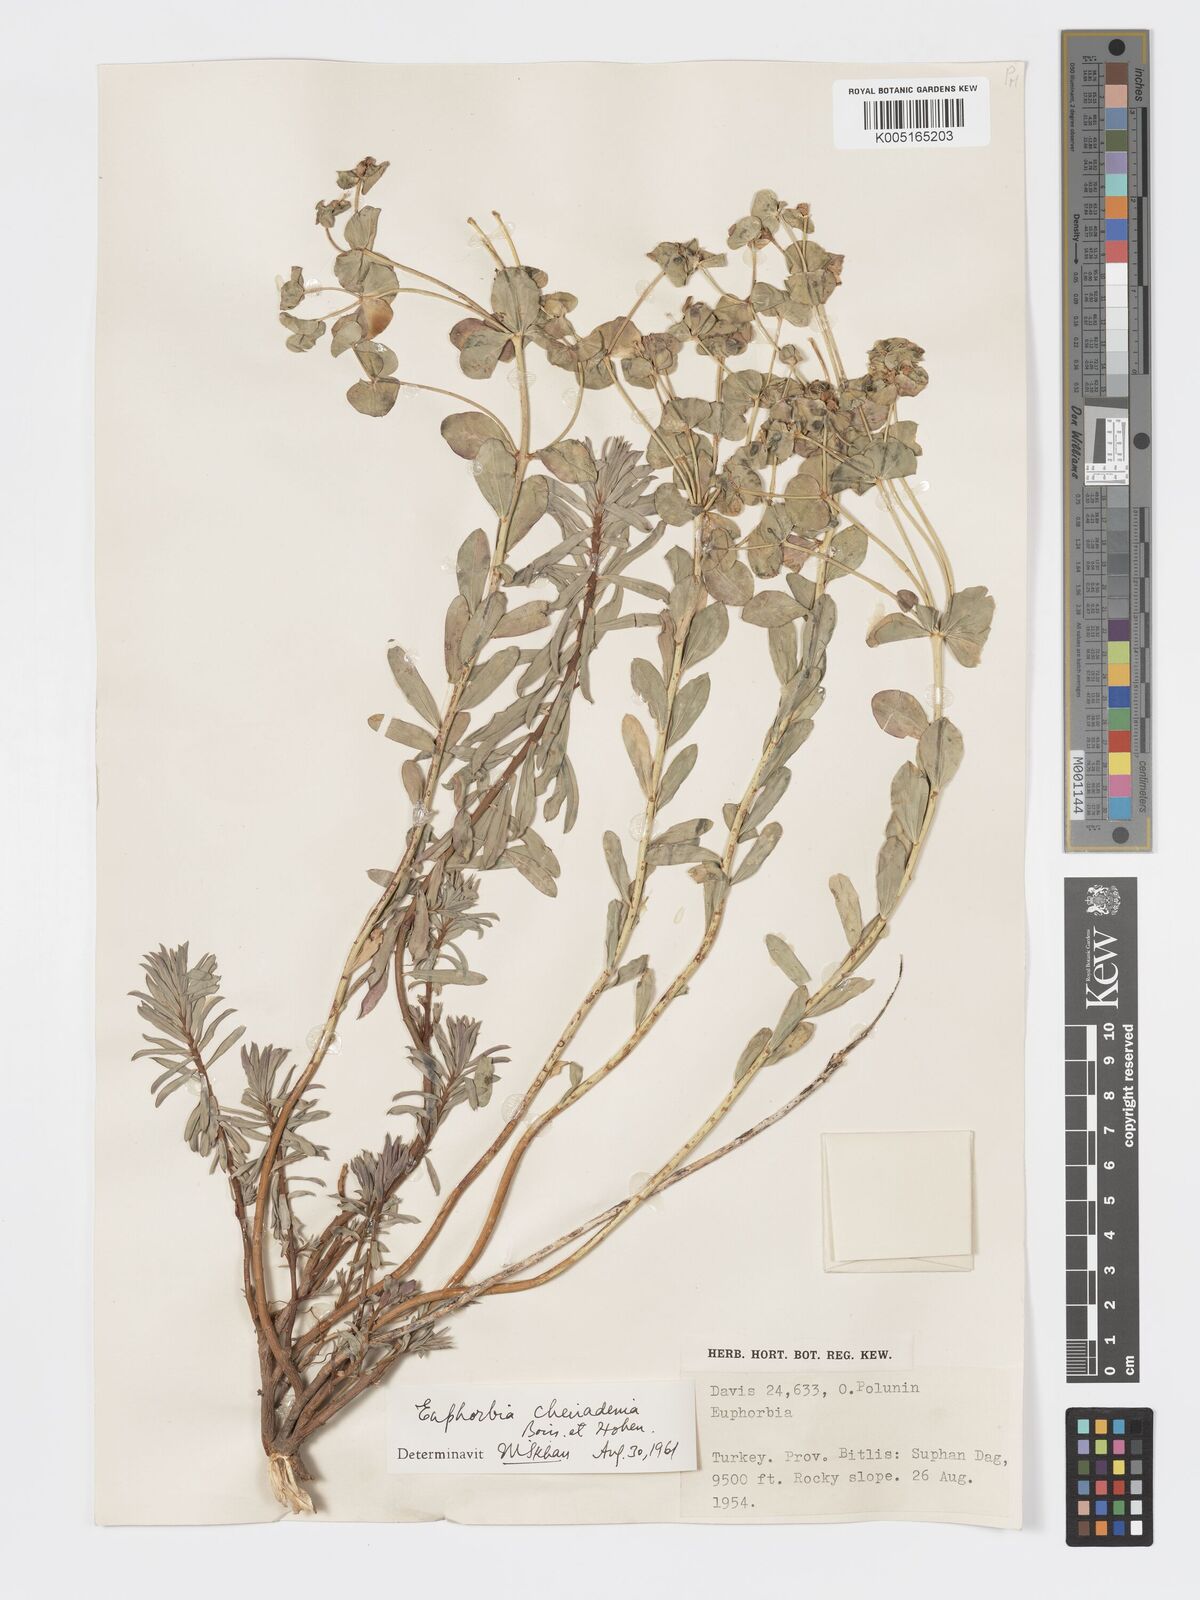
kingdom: Plantae
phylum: Tracheophyta
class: Magnoliopsida
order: Malpighiales
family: Euphorbiaceae
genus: Euphorbia
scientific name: Euphorbia cheiradenia
